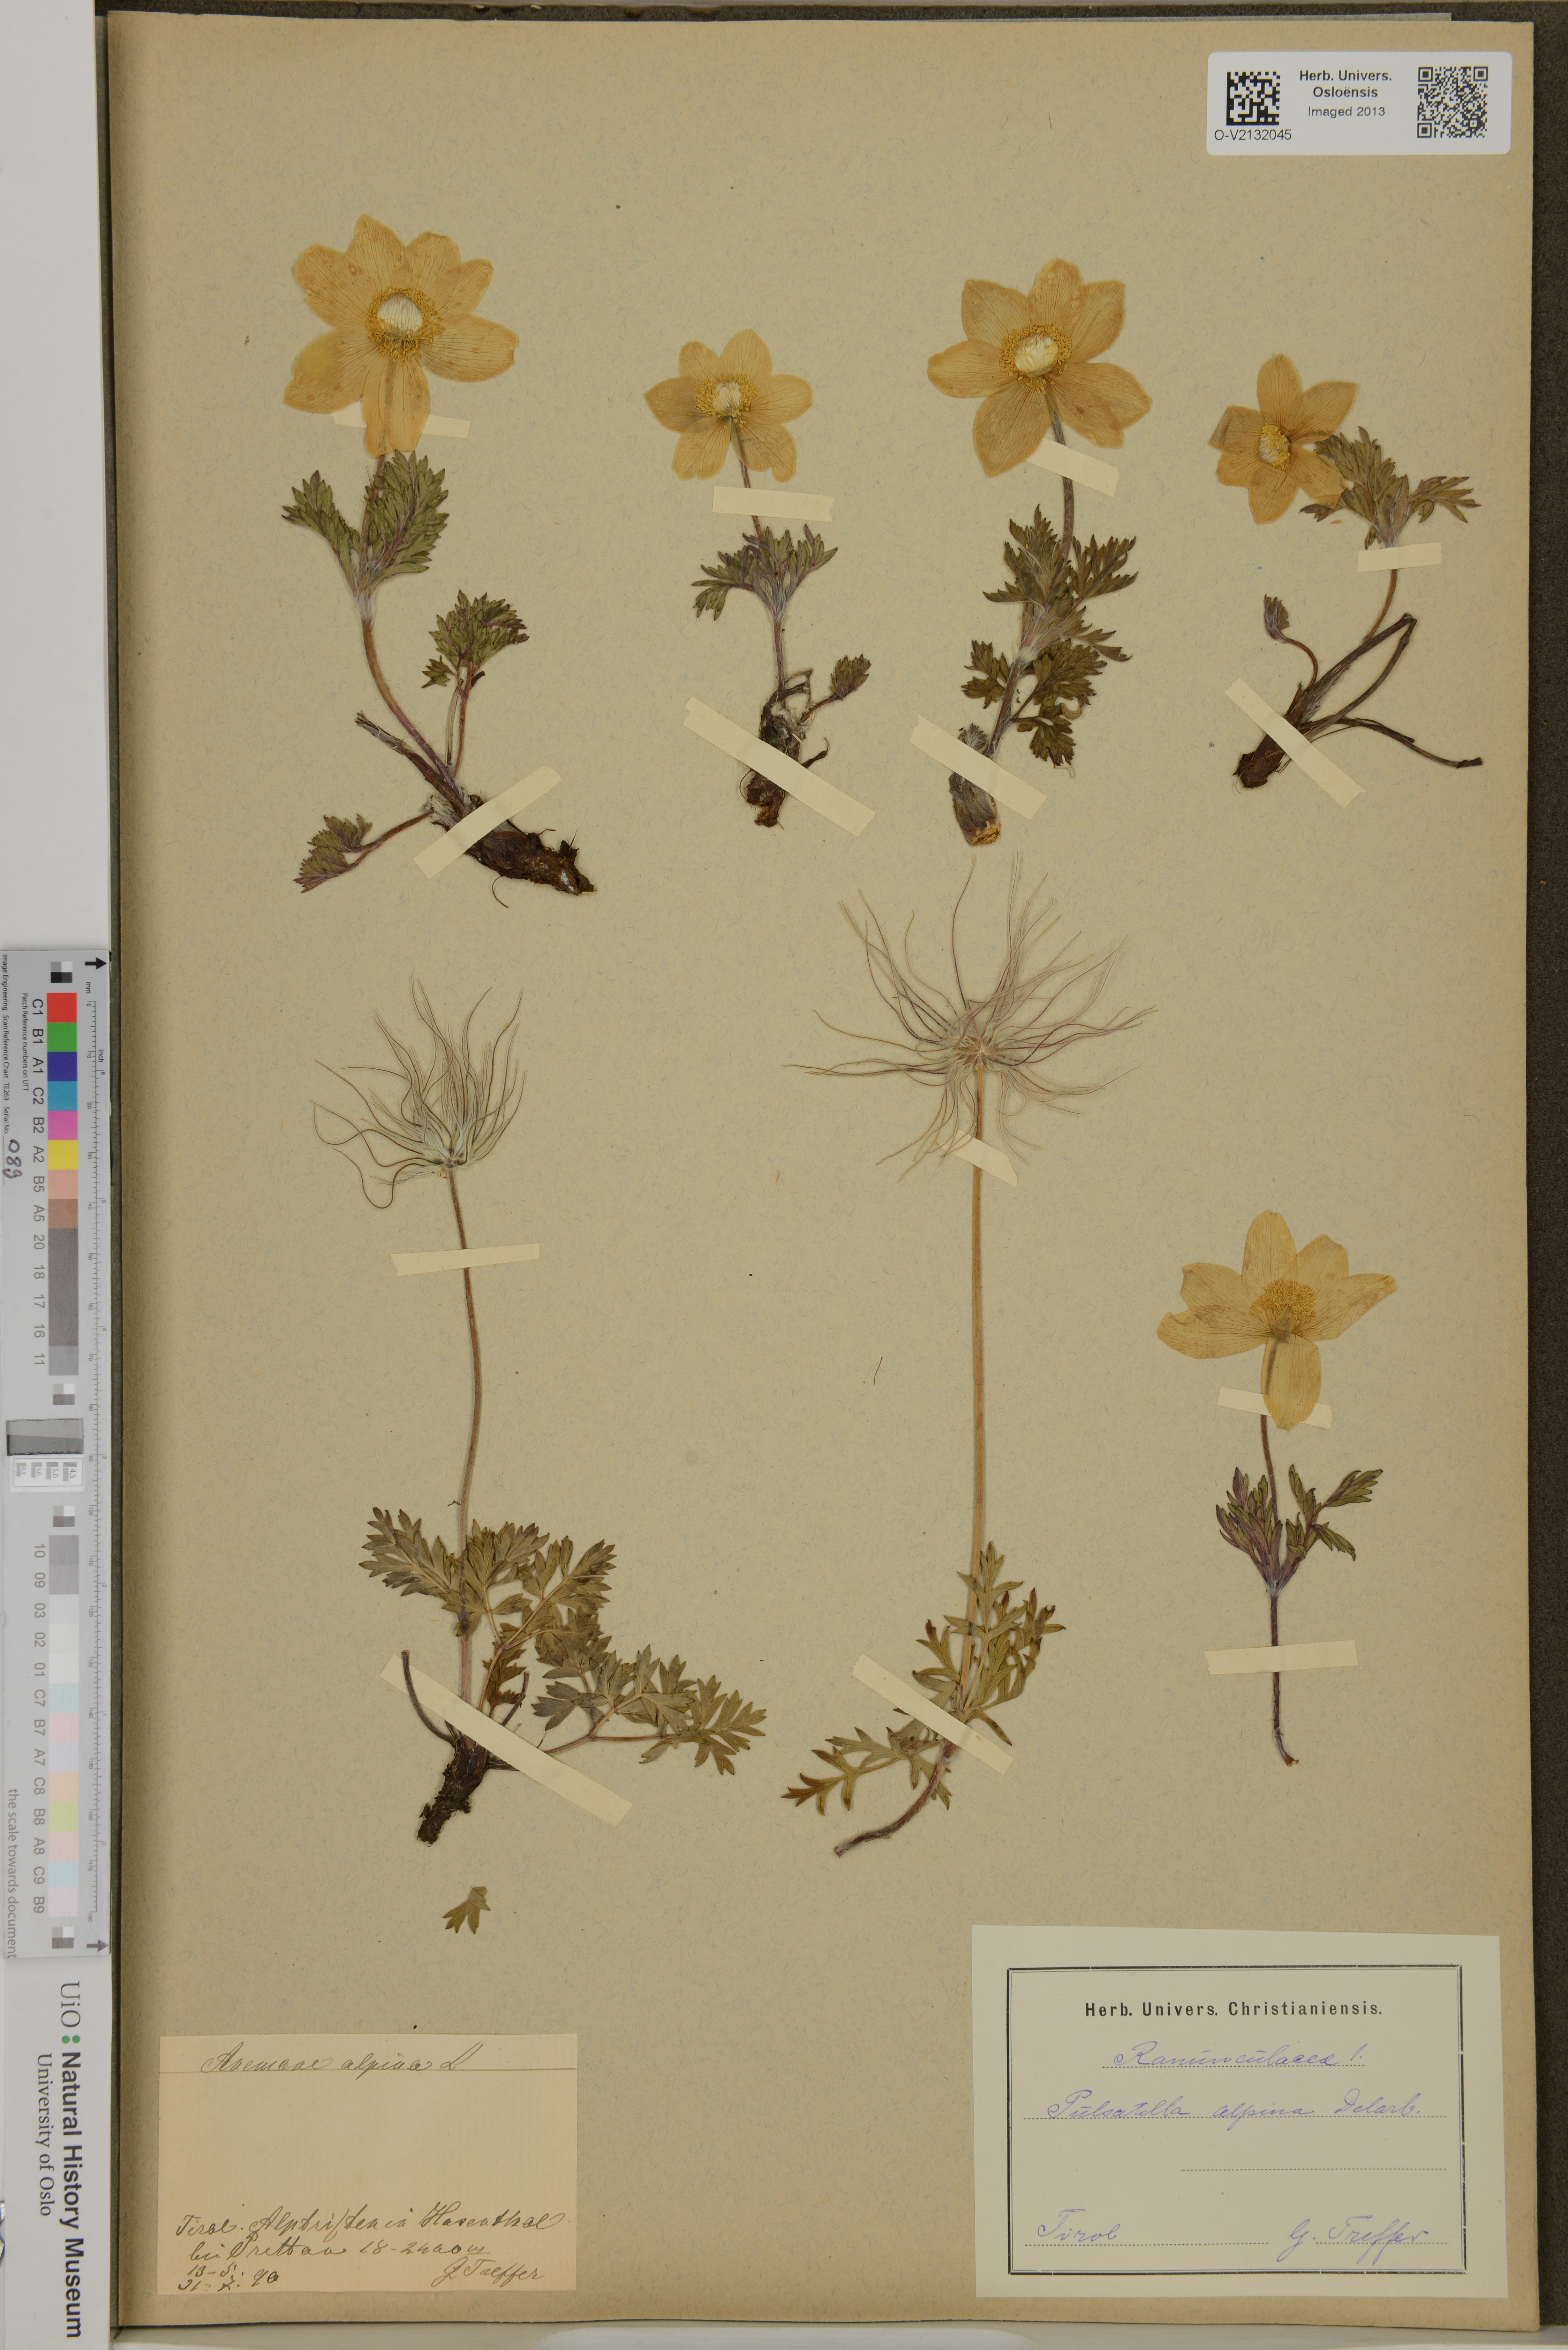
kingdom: Plantae
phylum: Tracheophyta
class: Magnoliopsida
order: Ranunculales
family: Ranunculaceae
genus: Pulsatilla
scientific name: Pulsatilla alpina
